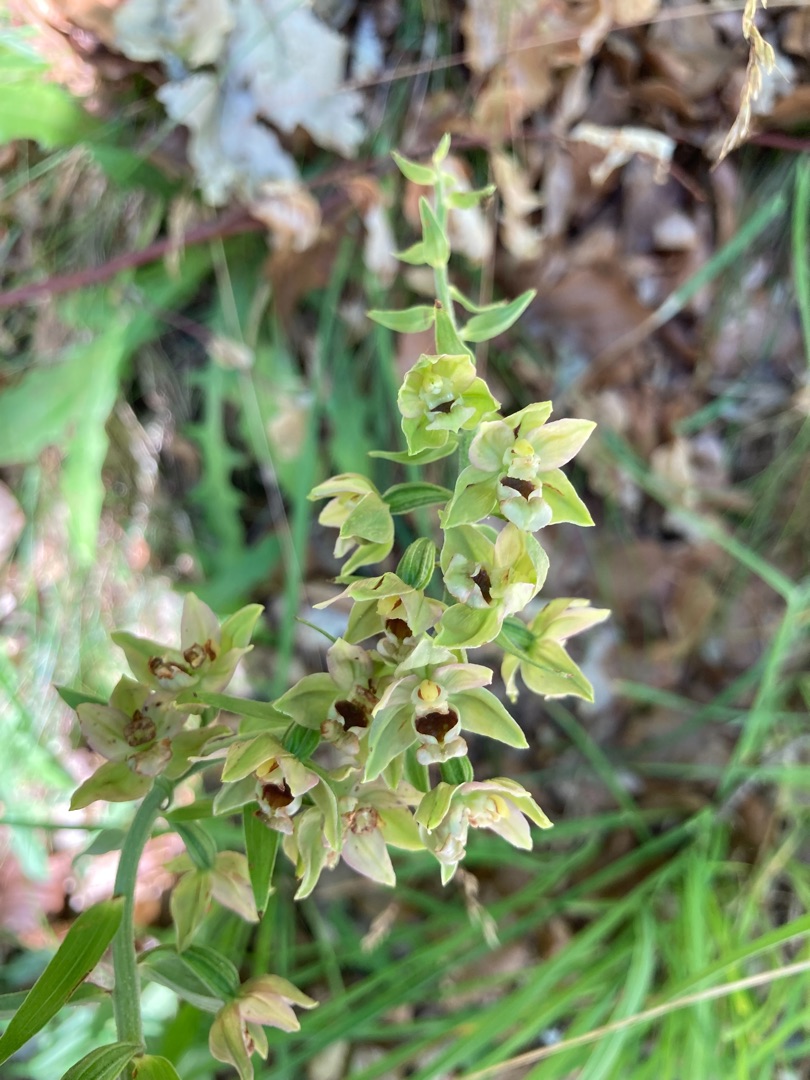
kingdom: Plantae
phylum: Tracheophyta
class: Liliopsida
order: Asparagales
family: Orchidaceae
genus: Epipactis
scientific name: Epipactis helleborine
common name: Skov-hullæbe
